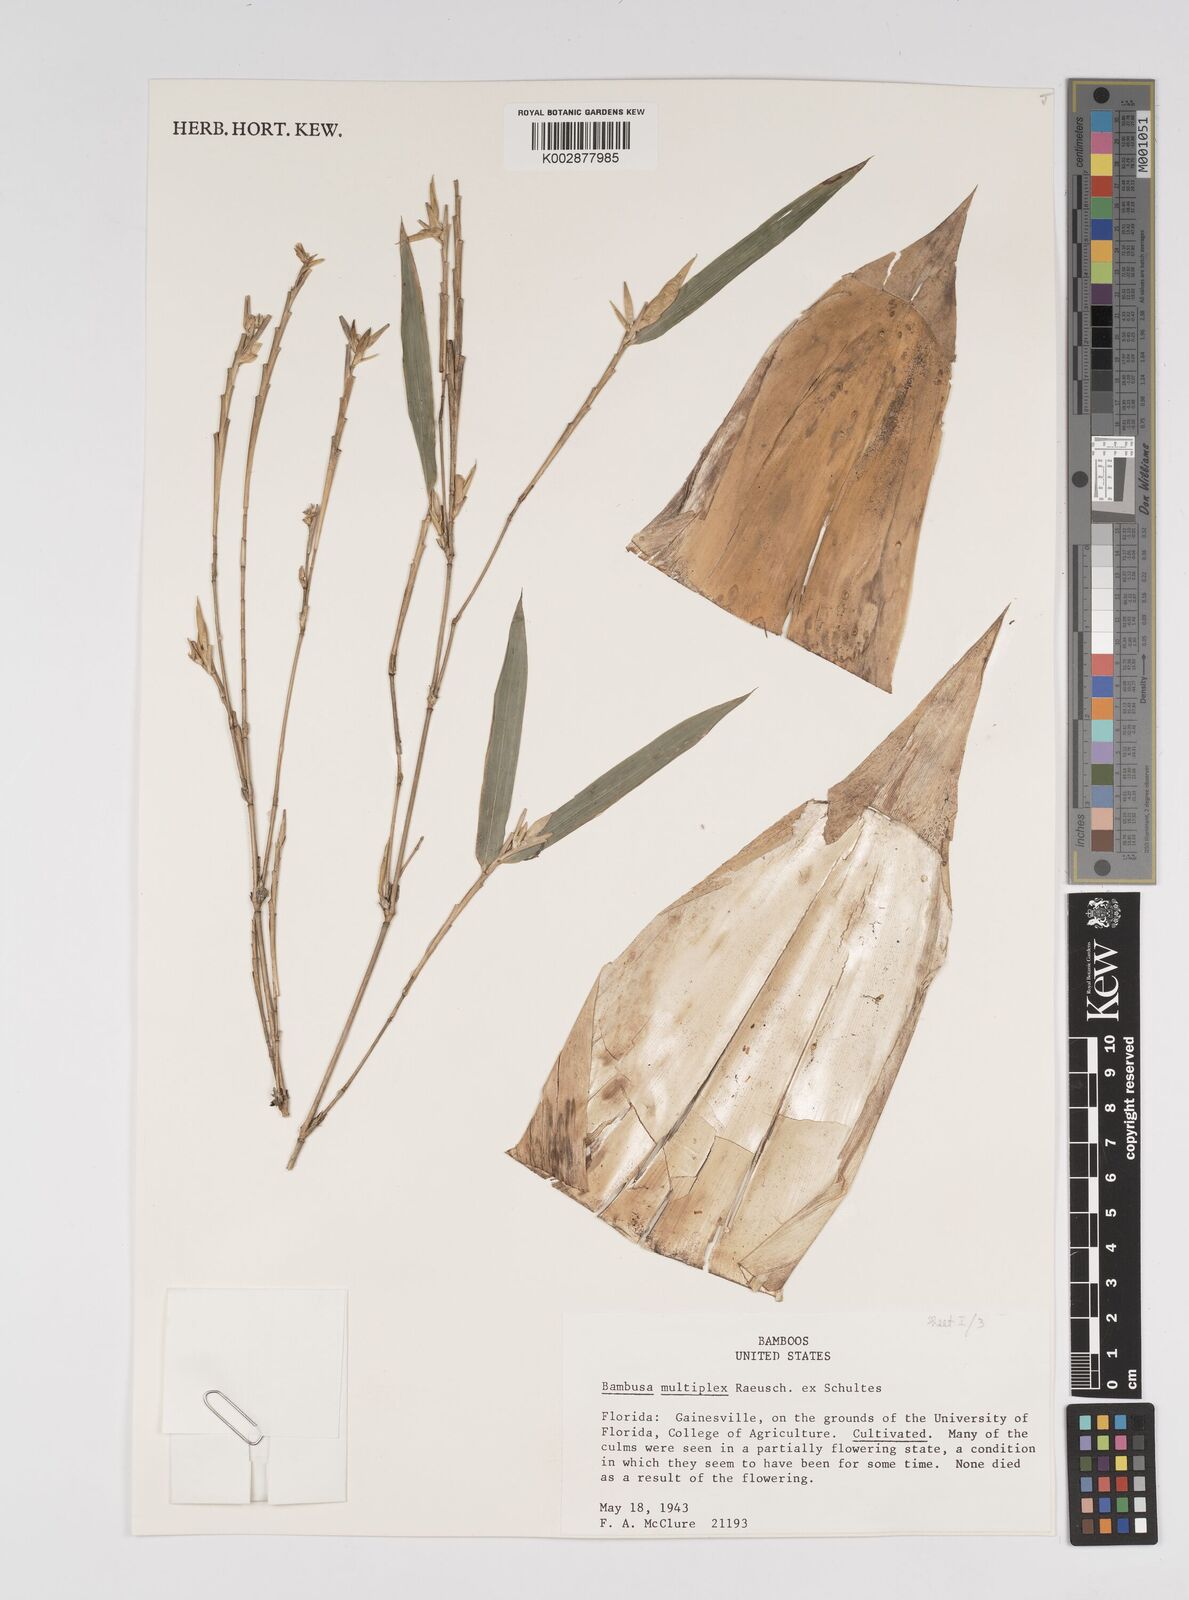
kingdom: Plantae
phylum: Tracheophyta
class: Liliopsida
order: Poales
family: Poaceae
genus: Bambusa
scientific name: Bambusa
